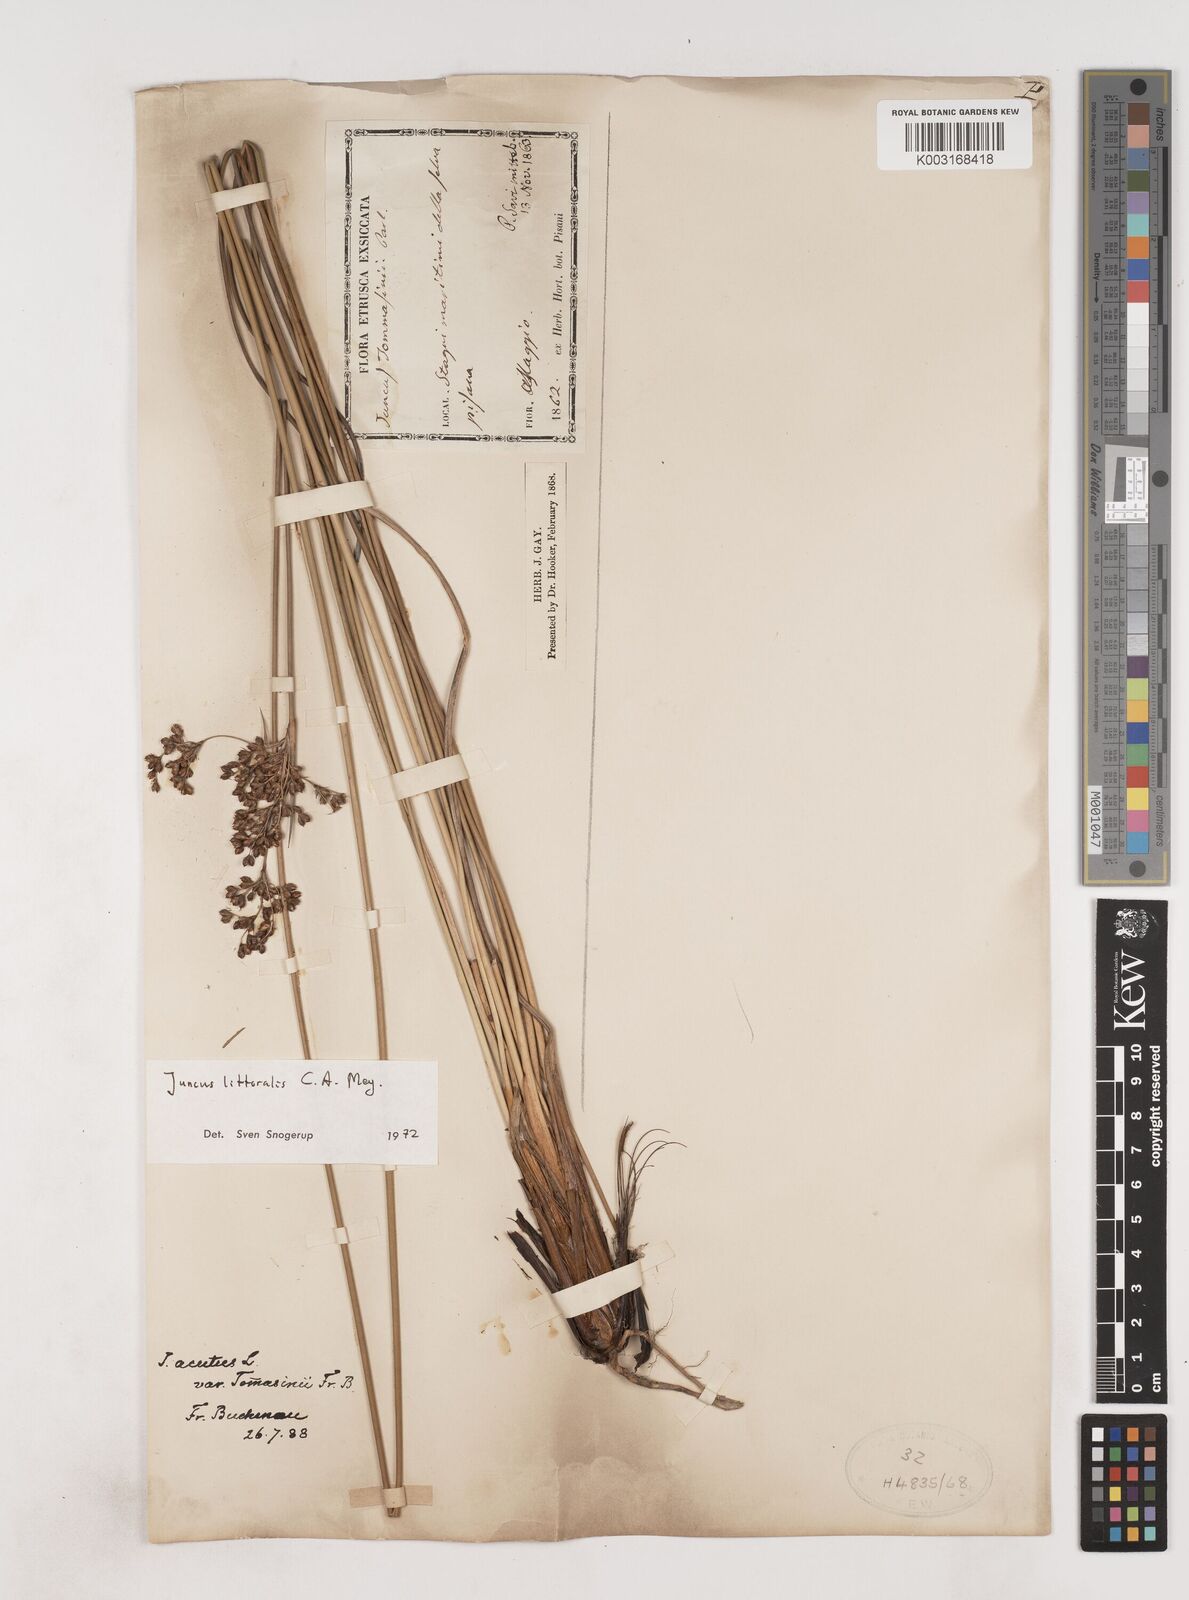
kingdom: Plantae
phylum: Tracheophyta
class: Liliopsida
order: Poales
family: Juncaceae
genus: Juncus
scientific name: Juncus
